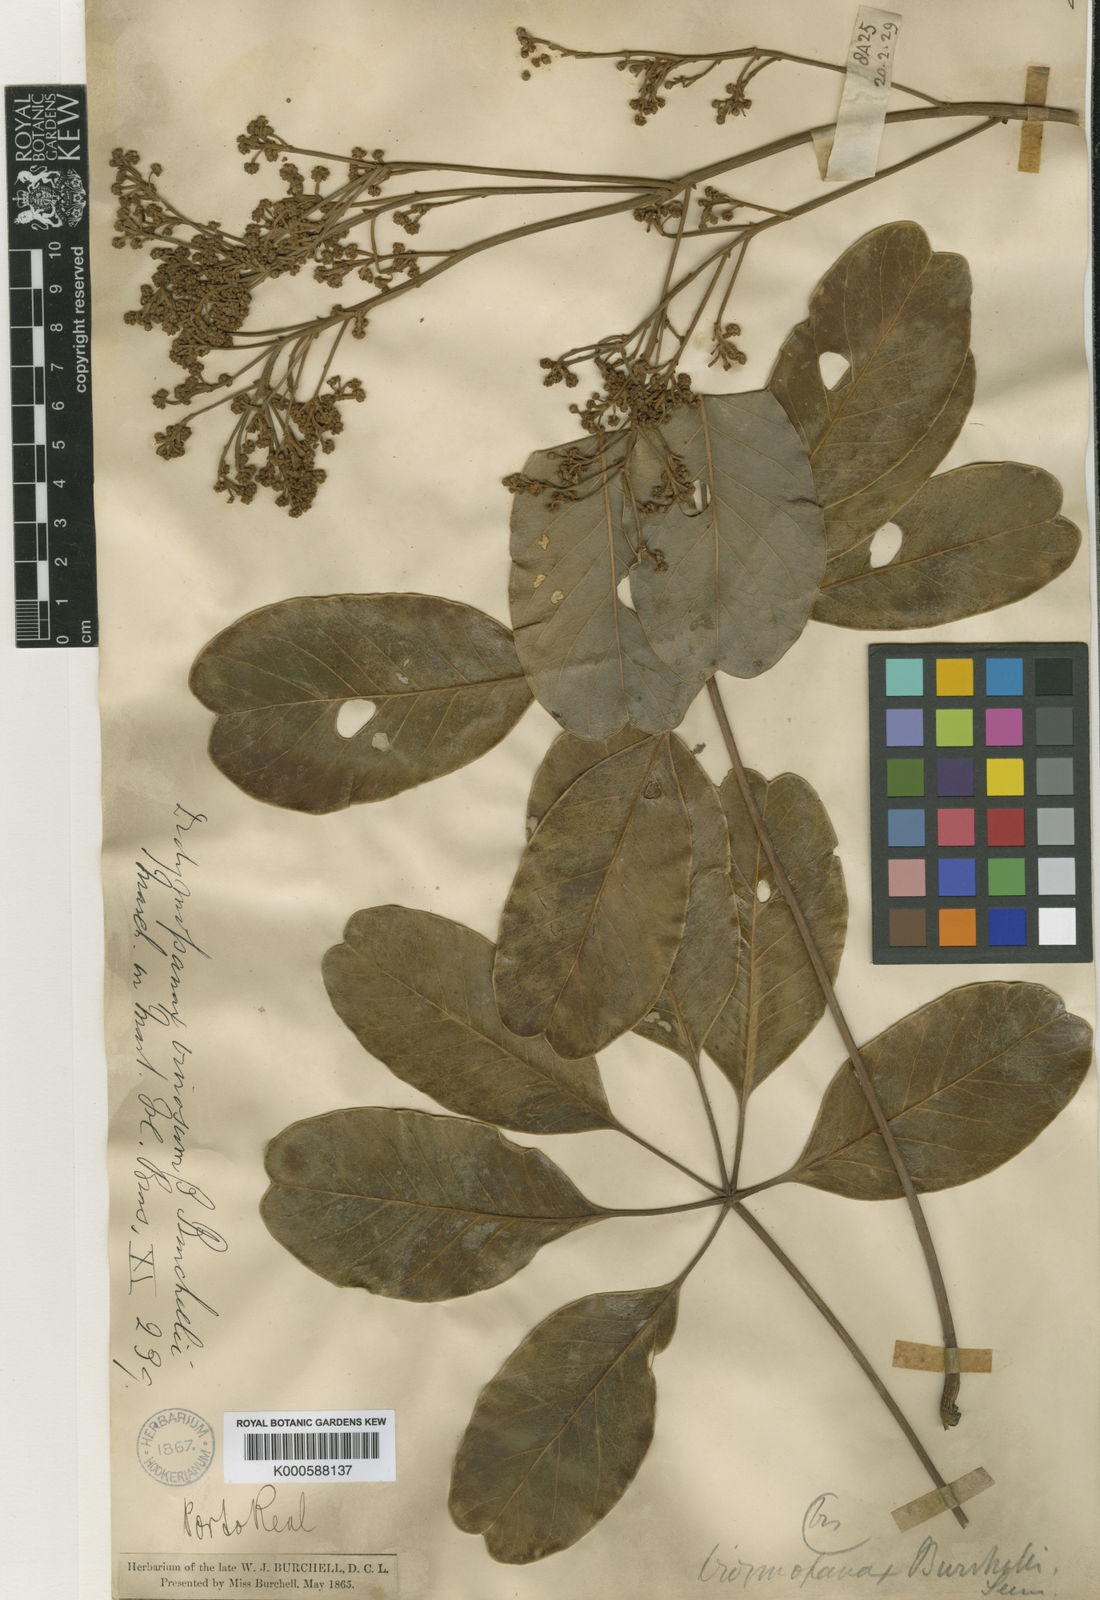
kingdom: Plantae
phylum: Tracheophyta
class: Magnoliopsida
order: Apiales
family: Araliaceae
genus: Didymopanax
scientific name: Didymopanax burchellii
